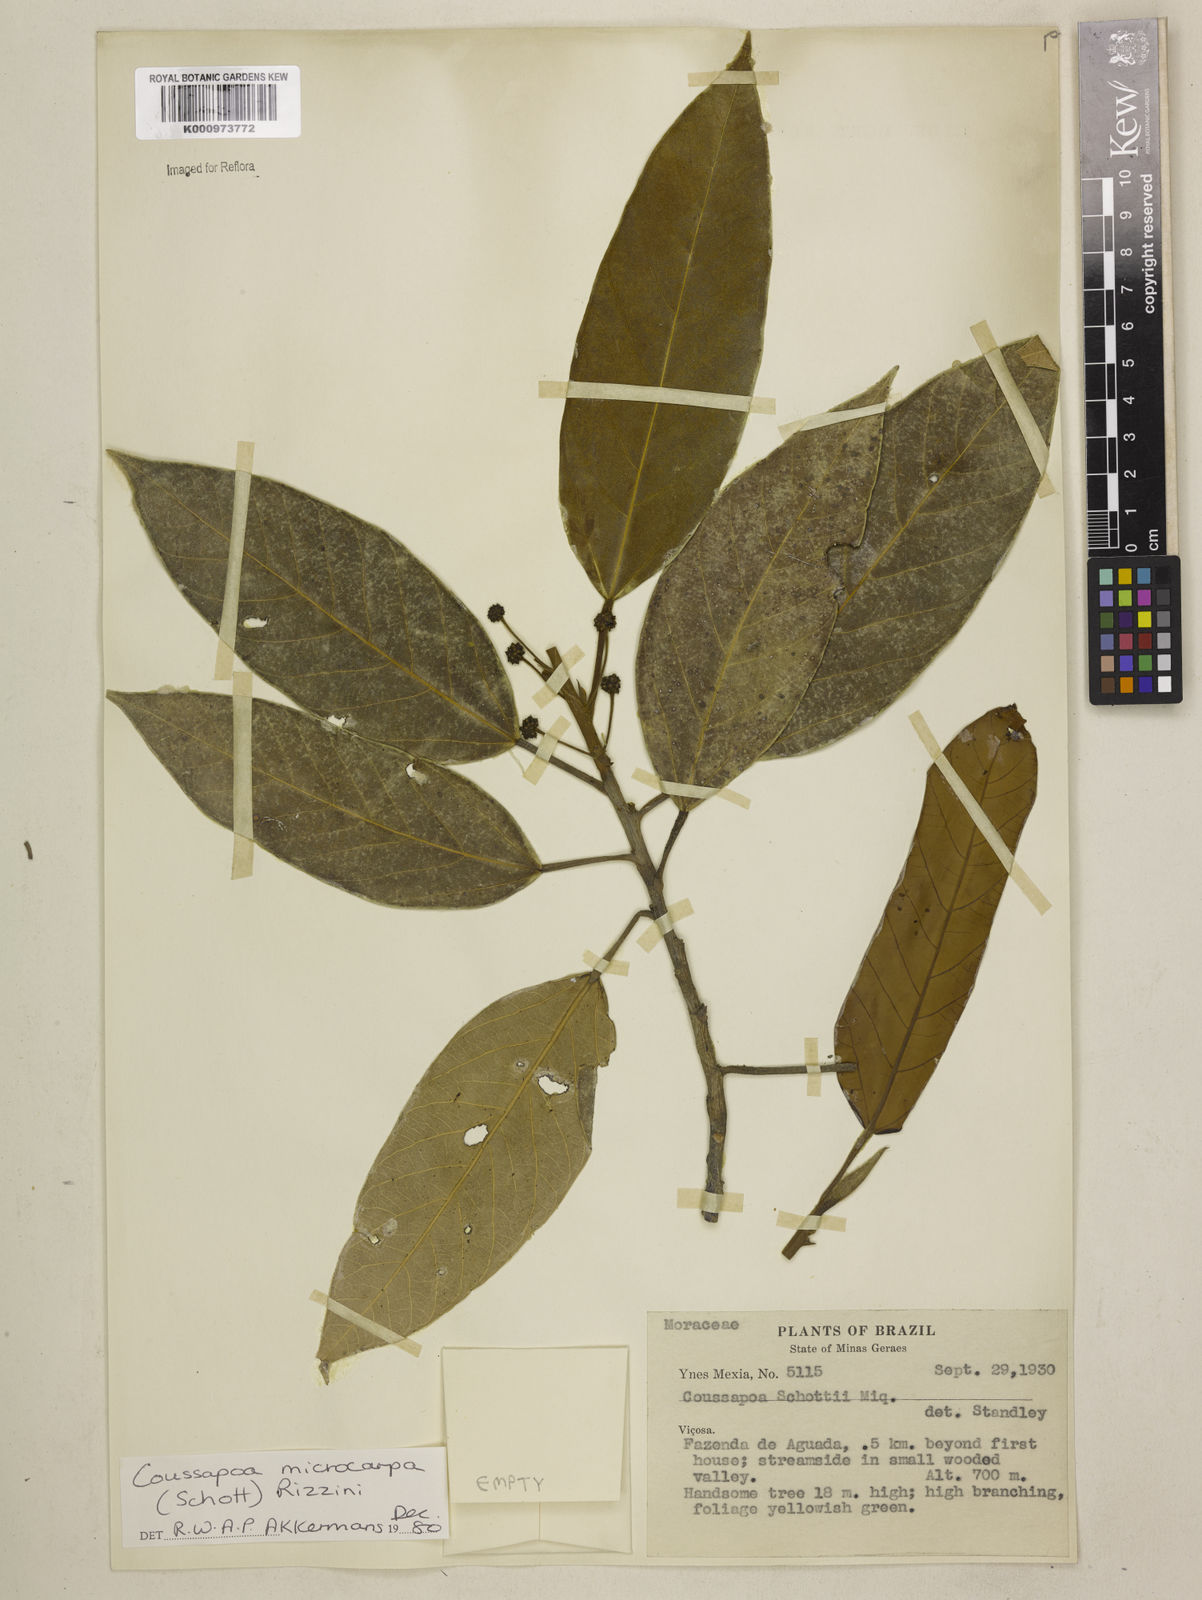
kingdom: Plantae
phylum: Tracheophyta
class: Magnoliopsida
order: Rosales
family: Urticaceae
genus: Coussapoa
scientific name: Coussapoa microcarpa
